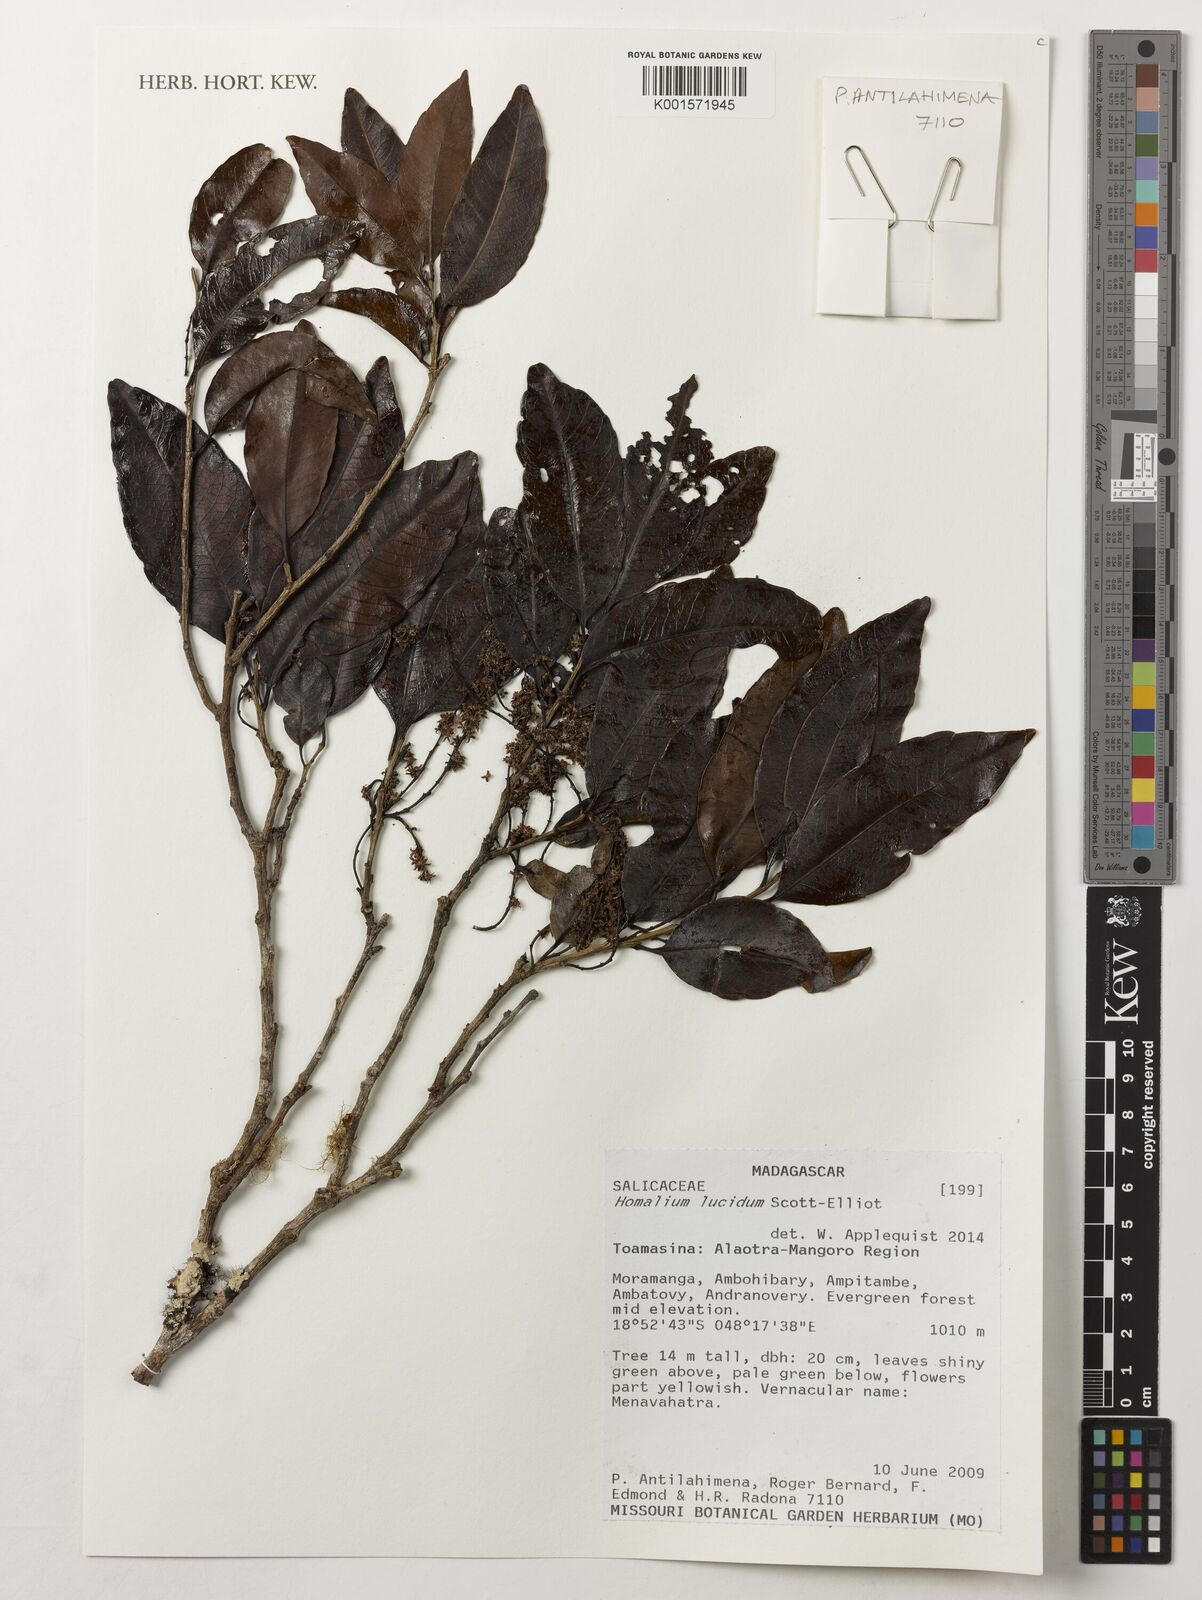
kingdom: Plantae
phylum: Tracheophyta
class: Magnoliopsida
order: Malpighiales
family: Salicaceae
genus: Homalium
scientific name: Homalium lucidum
